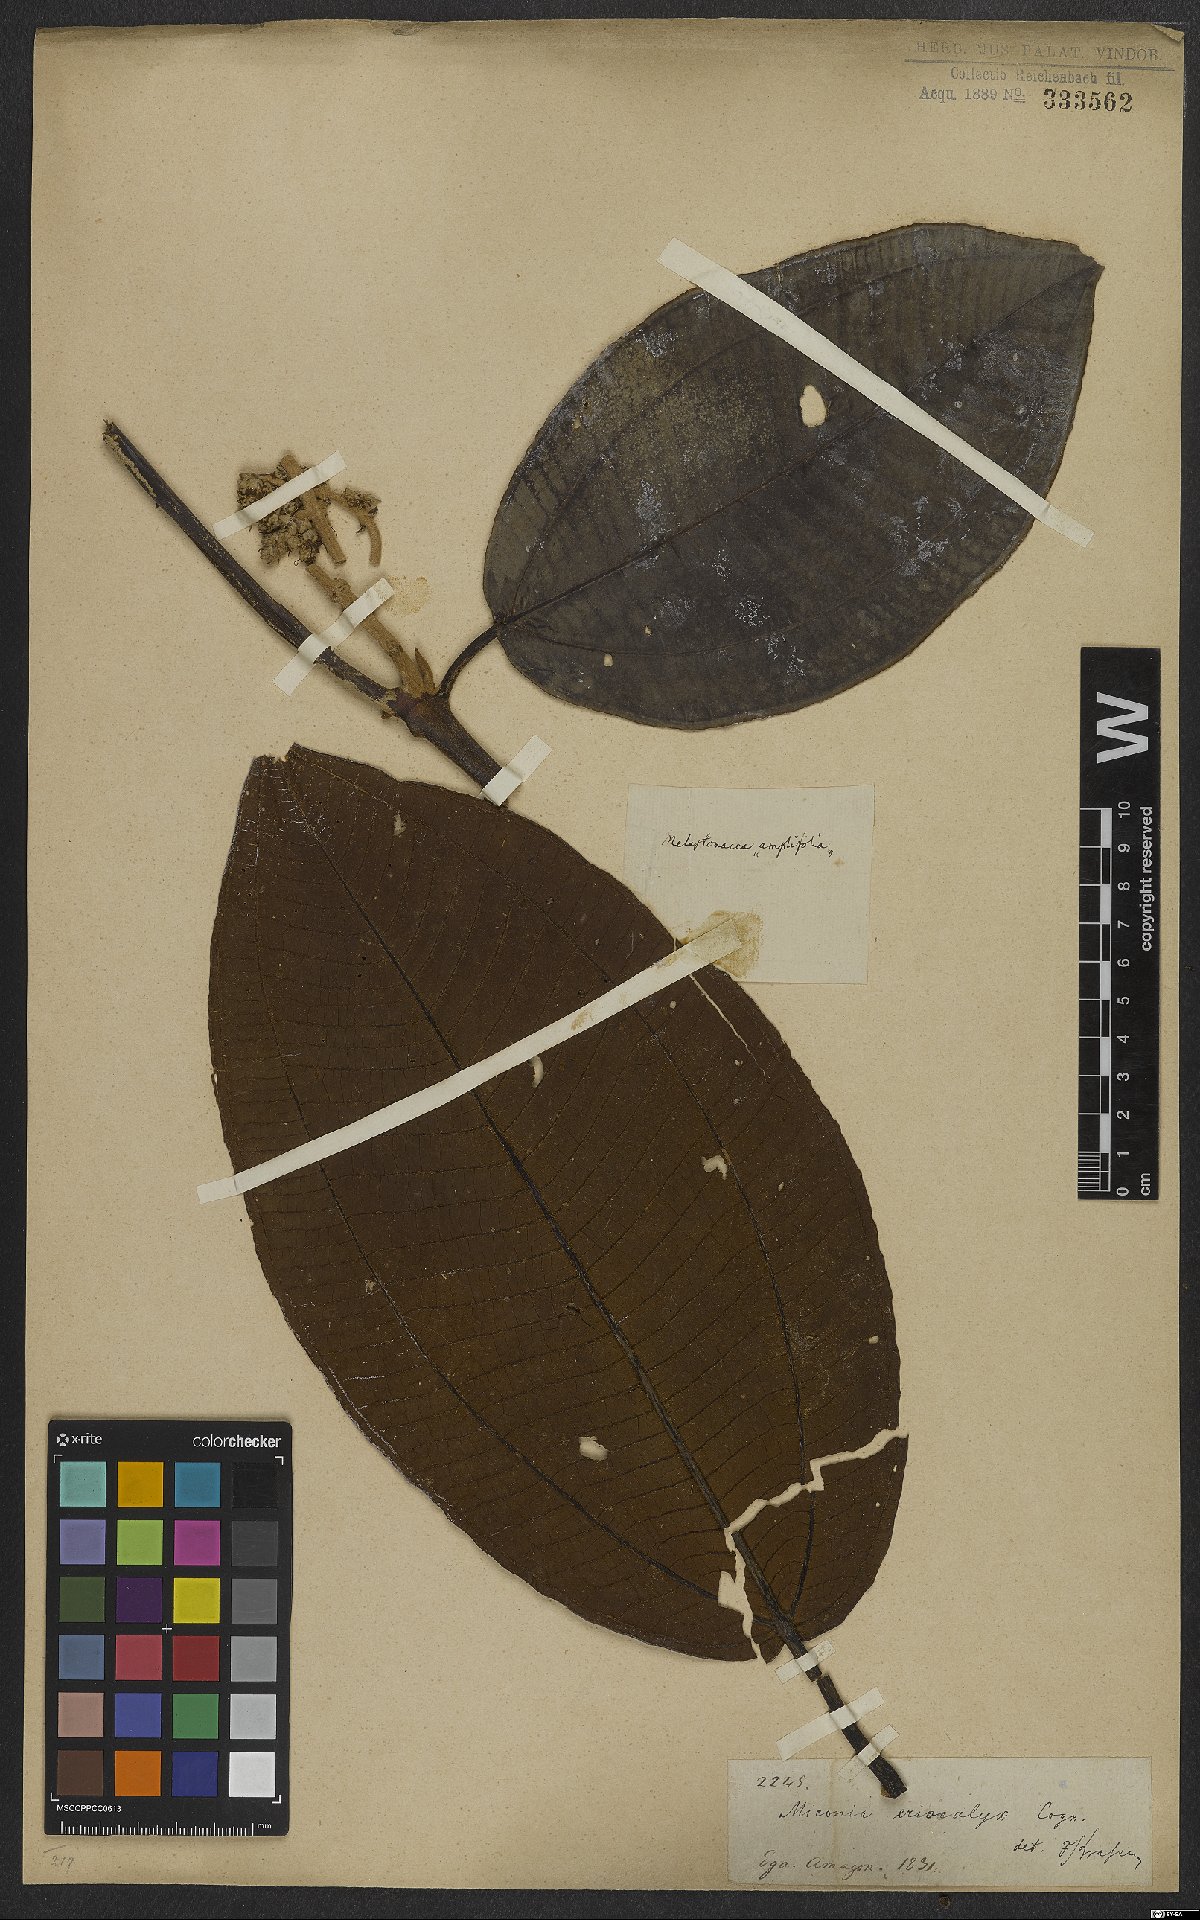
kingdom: Plantae
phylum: Tracheophyta
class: Magnoliopsida
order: Myrtales
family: Melastomataceae
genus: Miconia
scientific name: Miconia eriocalyx
